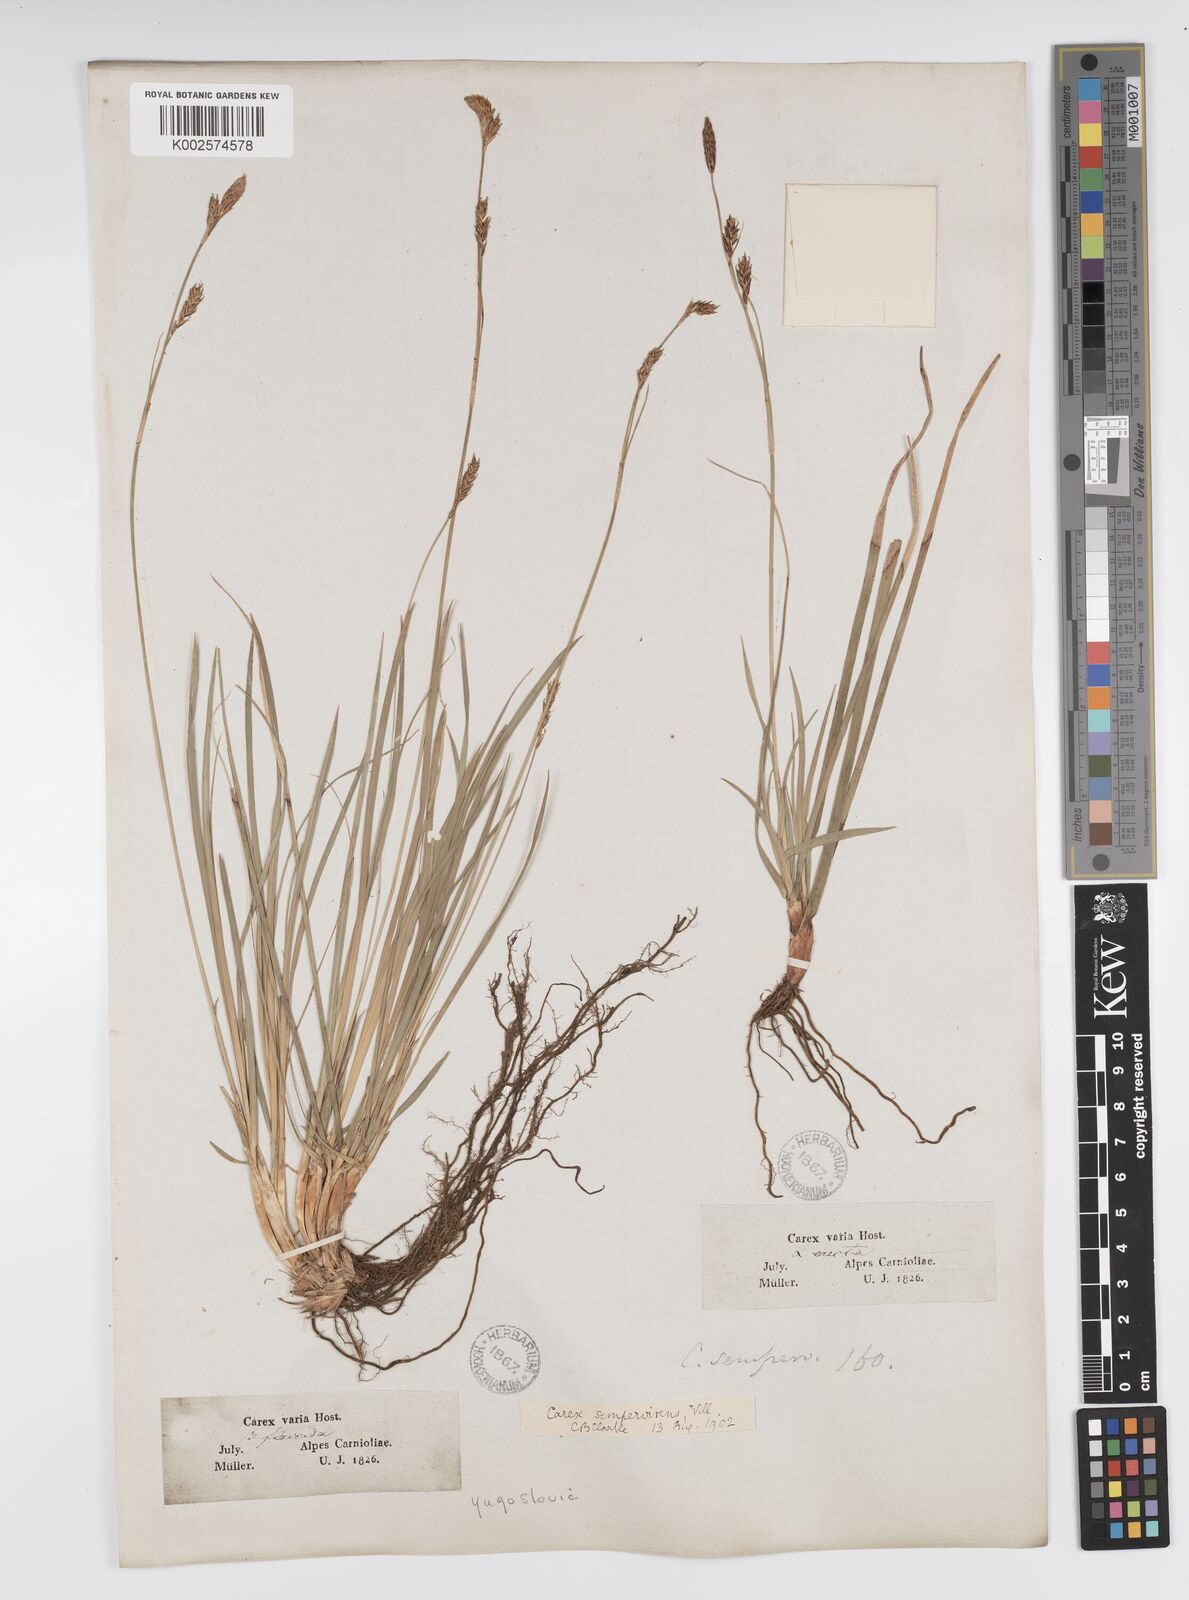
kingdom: Plantae
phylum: Tracheophyta
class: Liliopsida
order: Poales
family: Cyperaceae
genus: Carex
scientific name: Carex sempervirens
